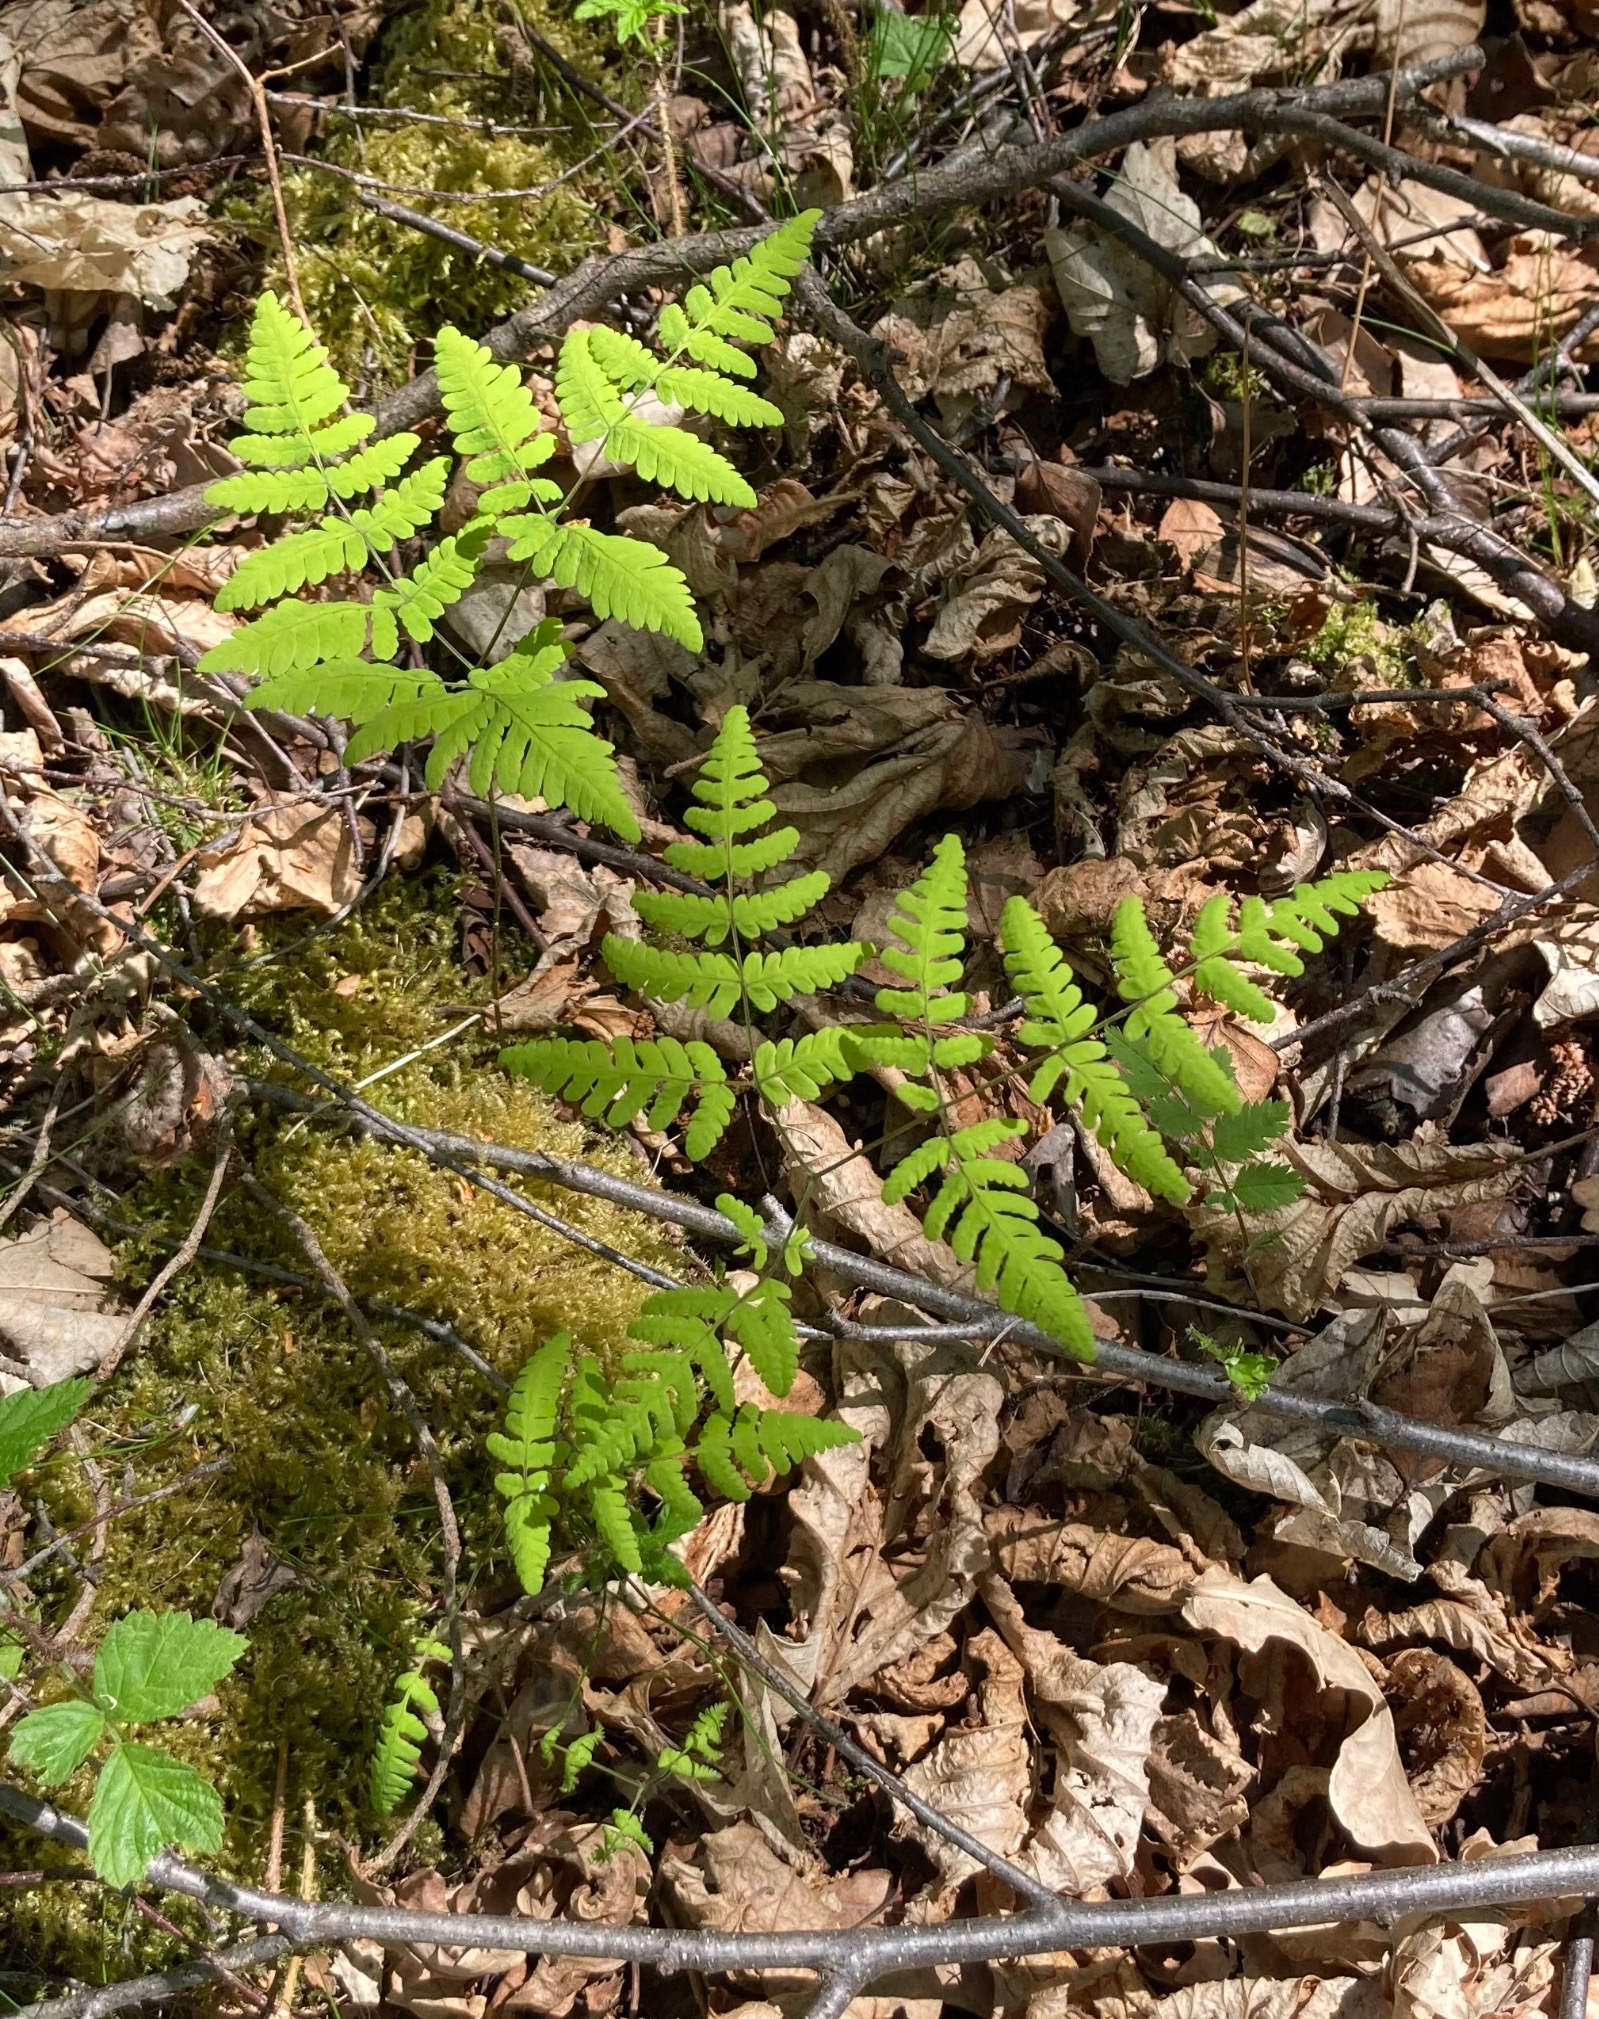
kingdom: Plantae
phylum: Tracheophyta
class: Polypodiopsida
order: Polypodiales
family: Cystopteridaceae
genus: Gymnocarpium
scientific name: Gymnocarpium dryopteris
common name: Tredelt egebregne
